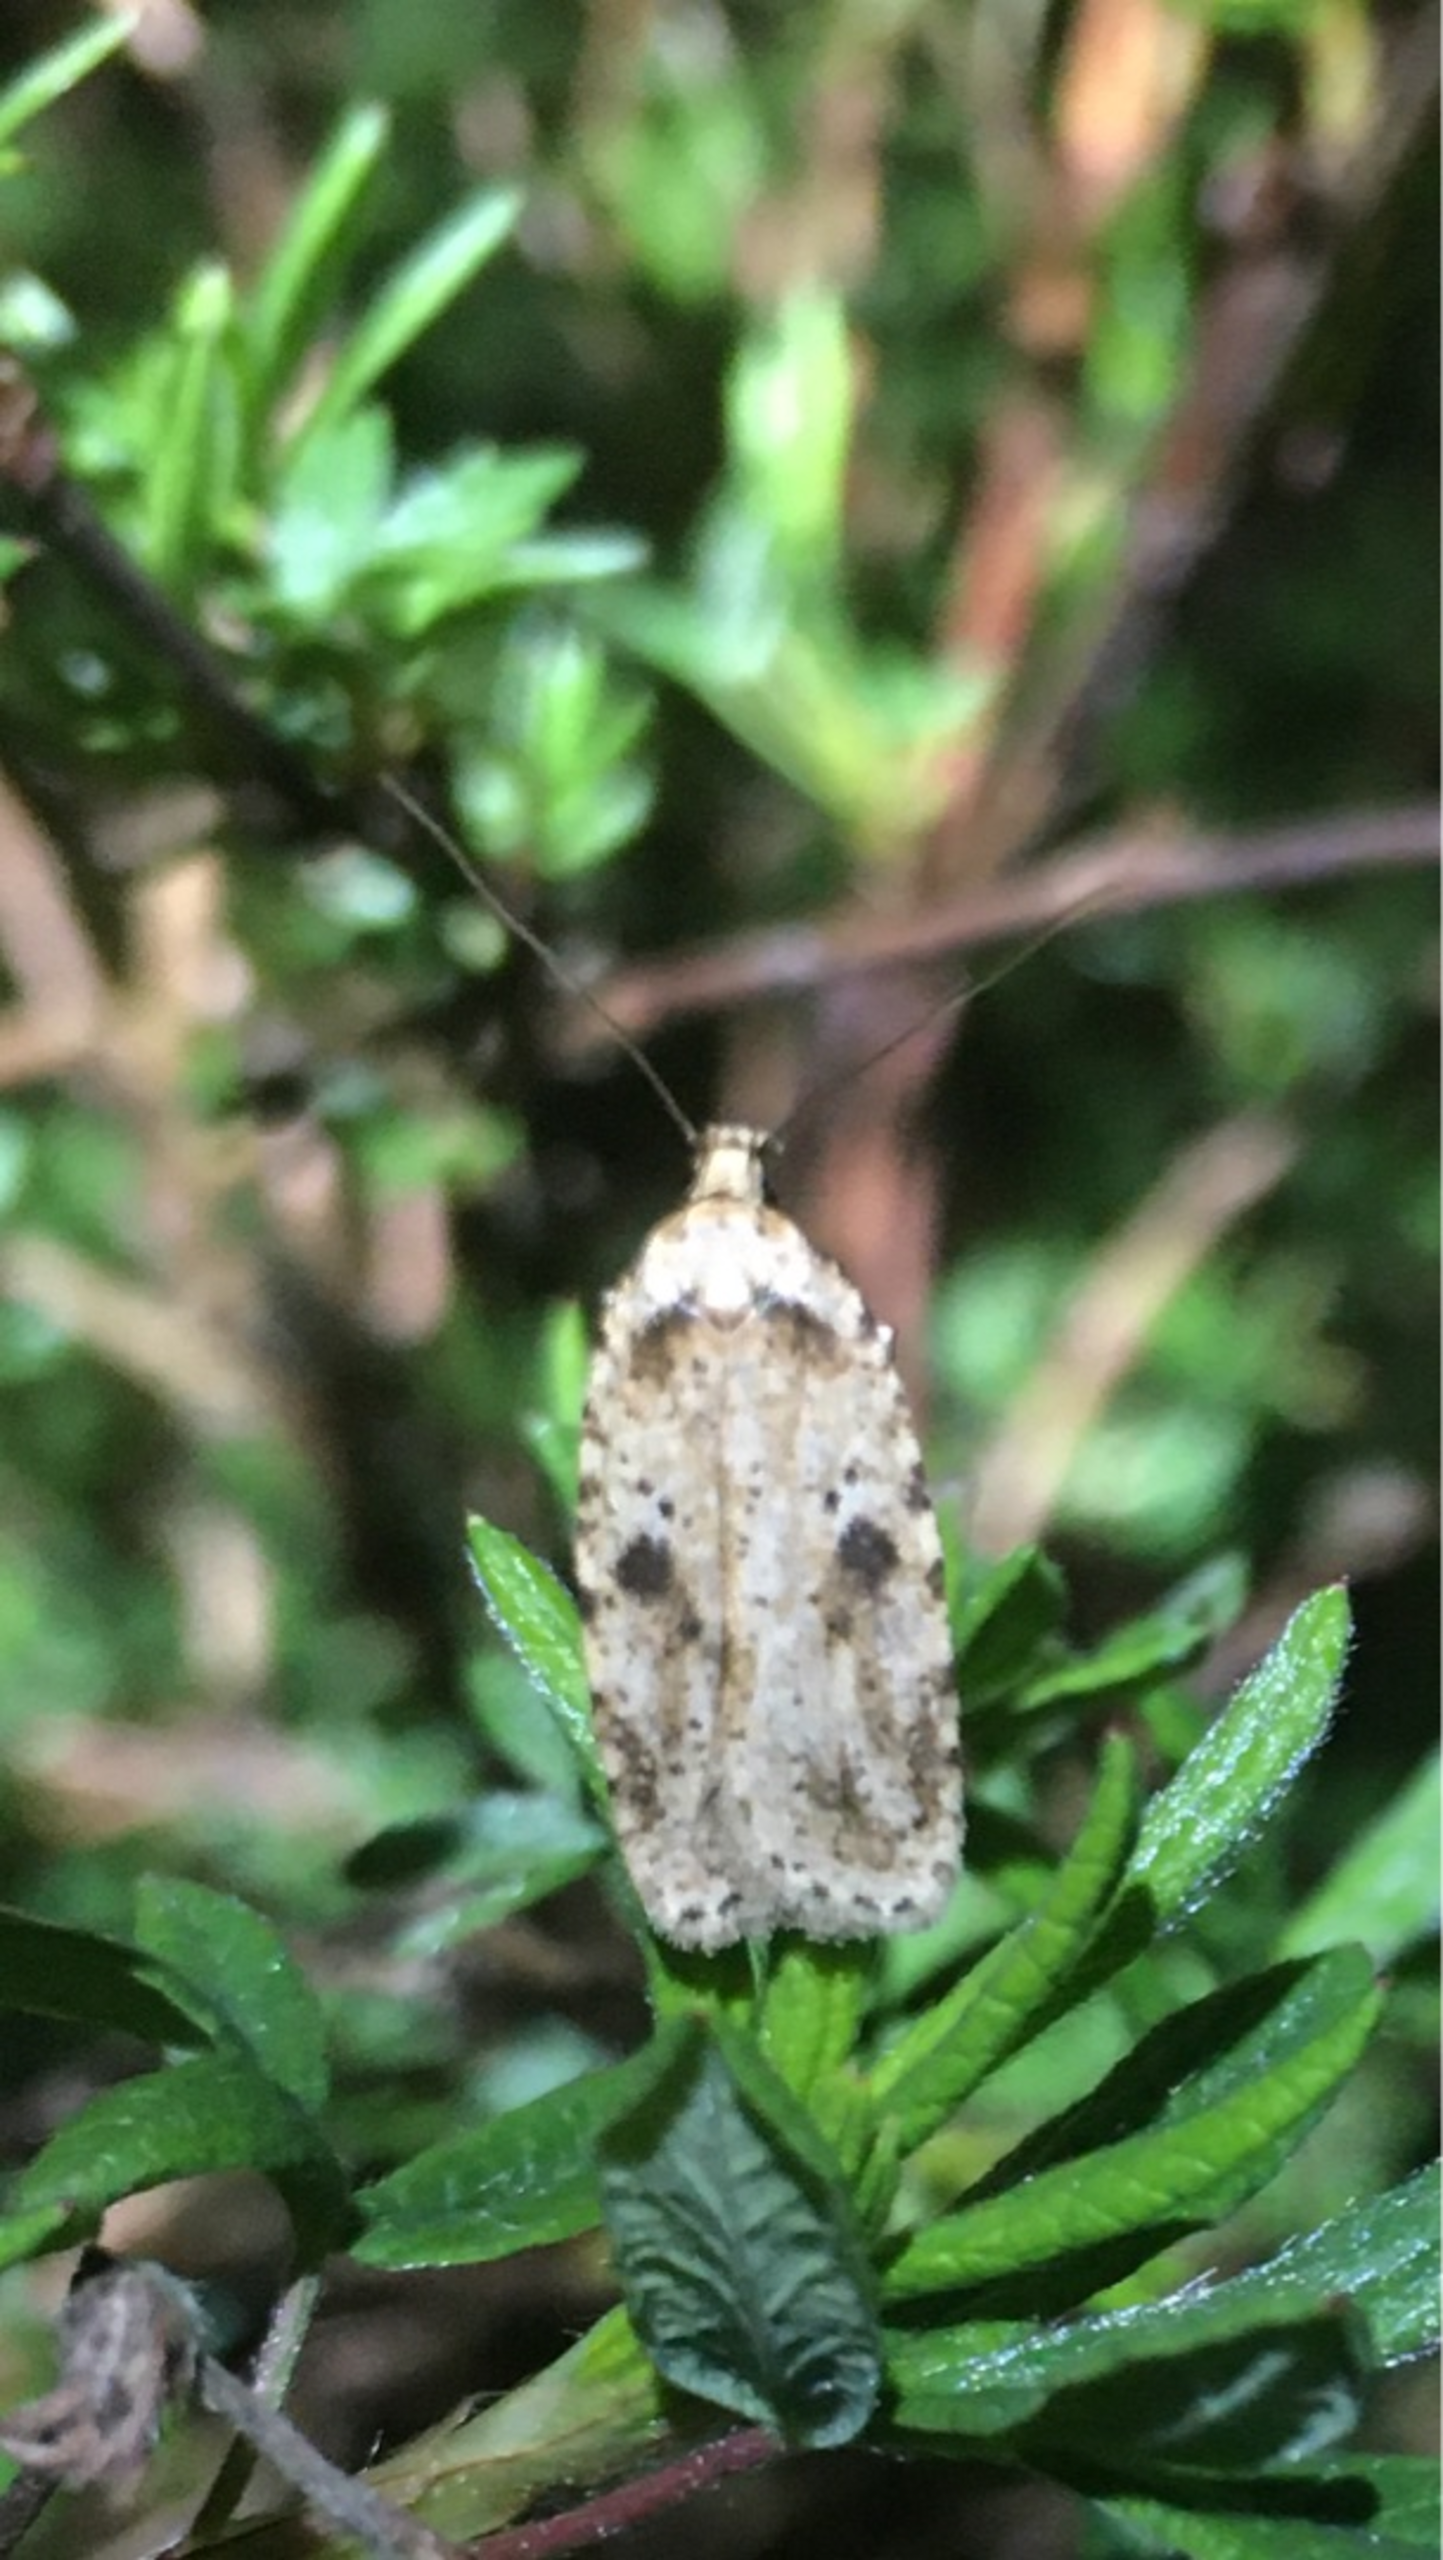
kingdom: Animalia
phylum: Arthropoda
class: Insecta
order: Lepidoptera
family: Depressariidae
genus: Agonopterix
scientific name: Agonopterix arenella
